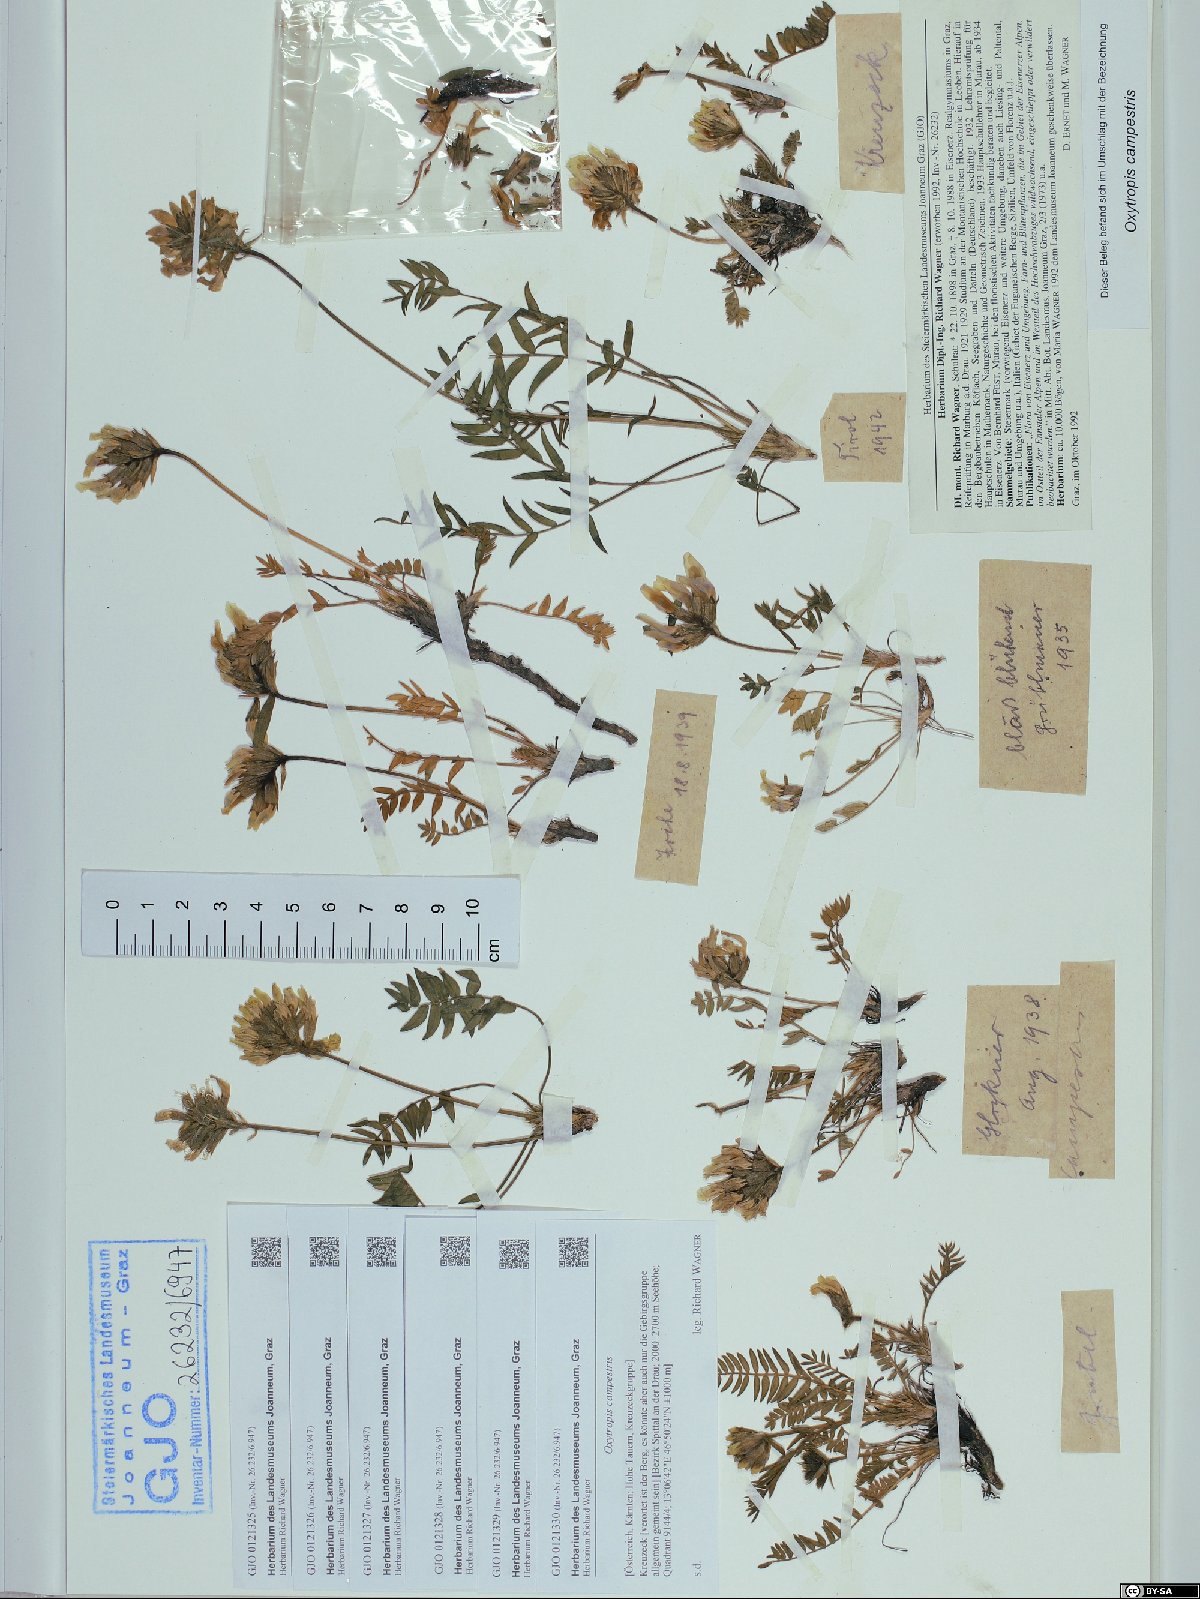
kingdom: Plantae
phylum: Tracheophyta
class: Magnoliopsida
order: Fabales
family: Fabaceae
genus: Oxytropis
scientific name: Oxytropis campestris
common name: Field locoweed
